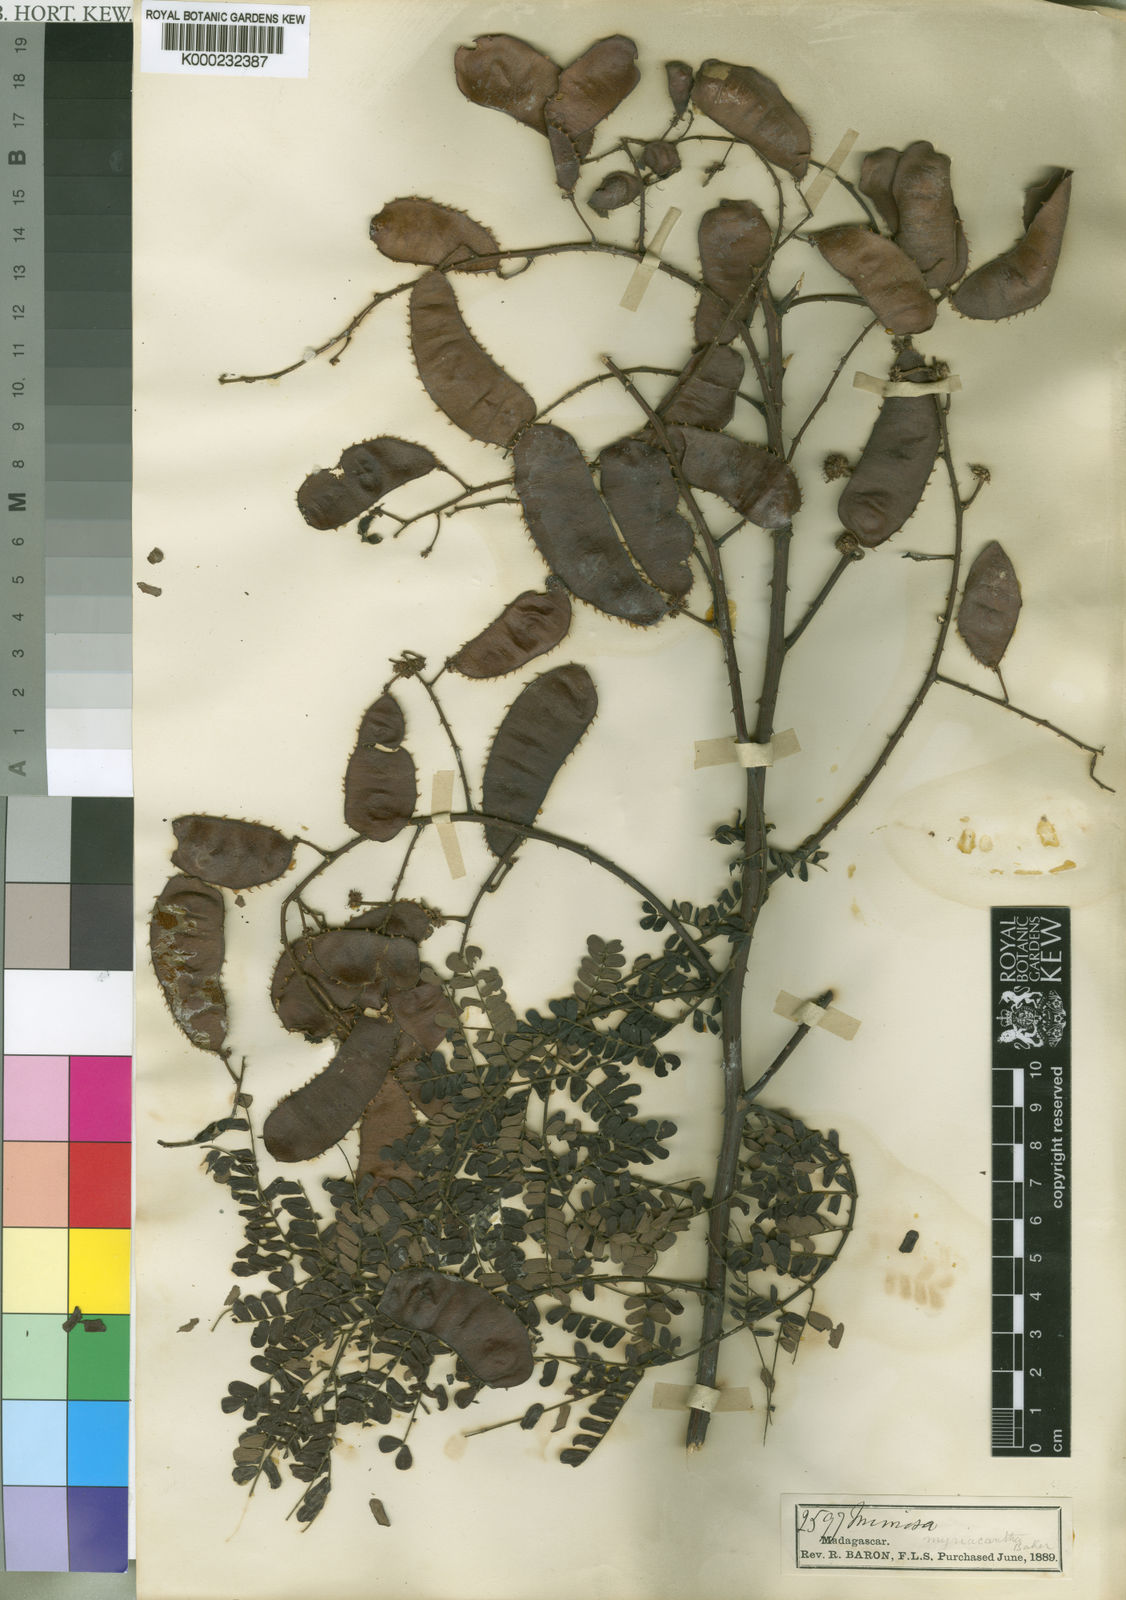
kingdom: Plantae
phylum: Tracheophyta
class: Magnoliopsida
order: Fabales
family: Fabaceae
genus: Mimosa
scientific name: Mimosa
